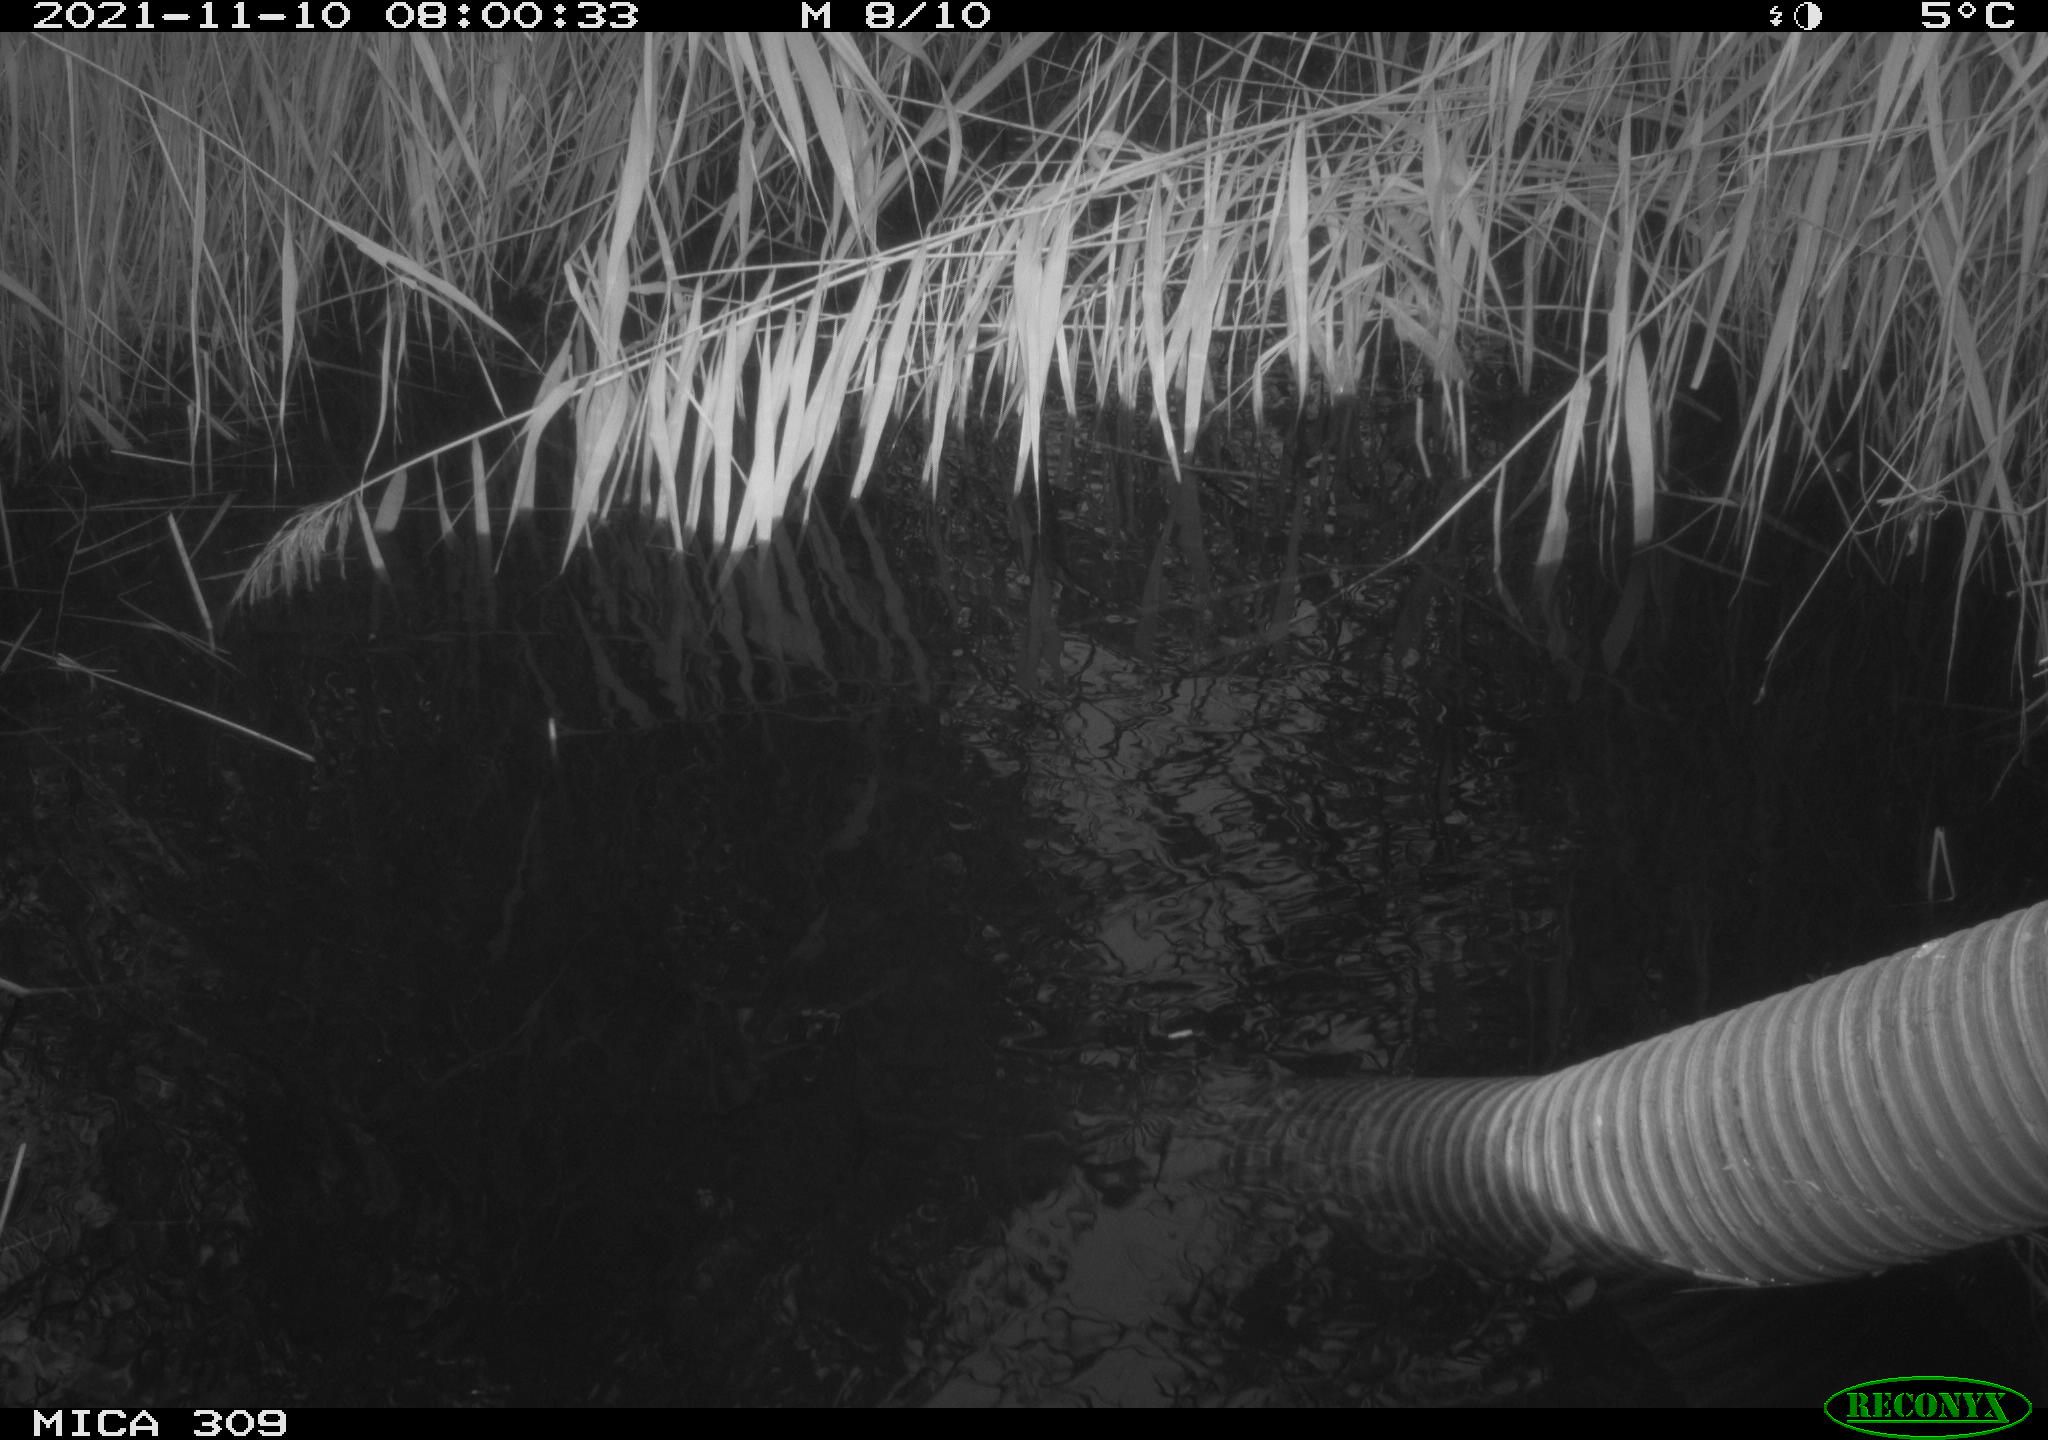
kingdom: Animalia
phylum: Chordata
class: Mammalia
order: Rodentia
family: Muridae
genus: Rattus
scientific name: Rattus norvegicus
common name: Brown rat
